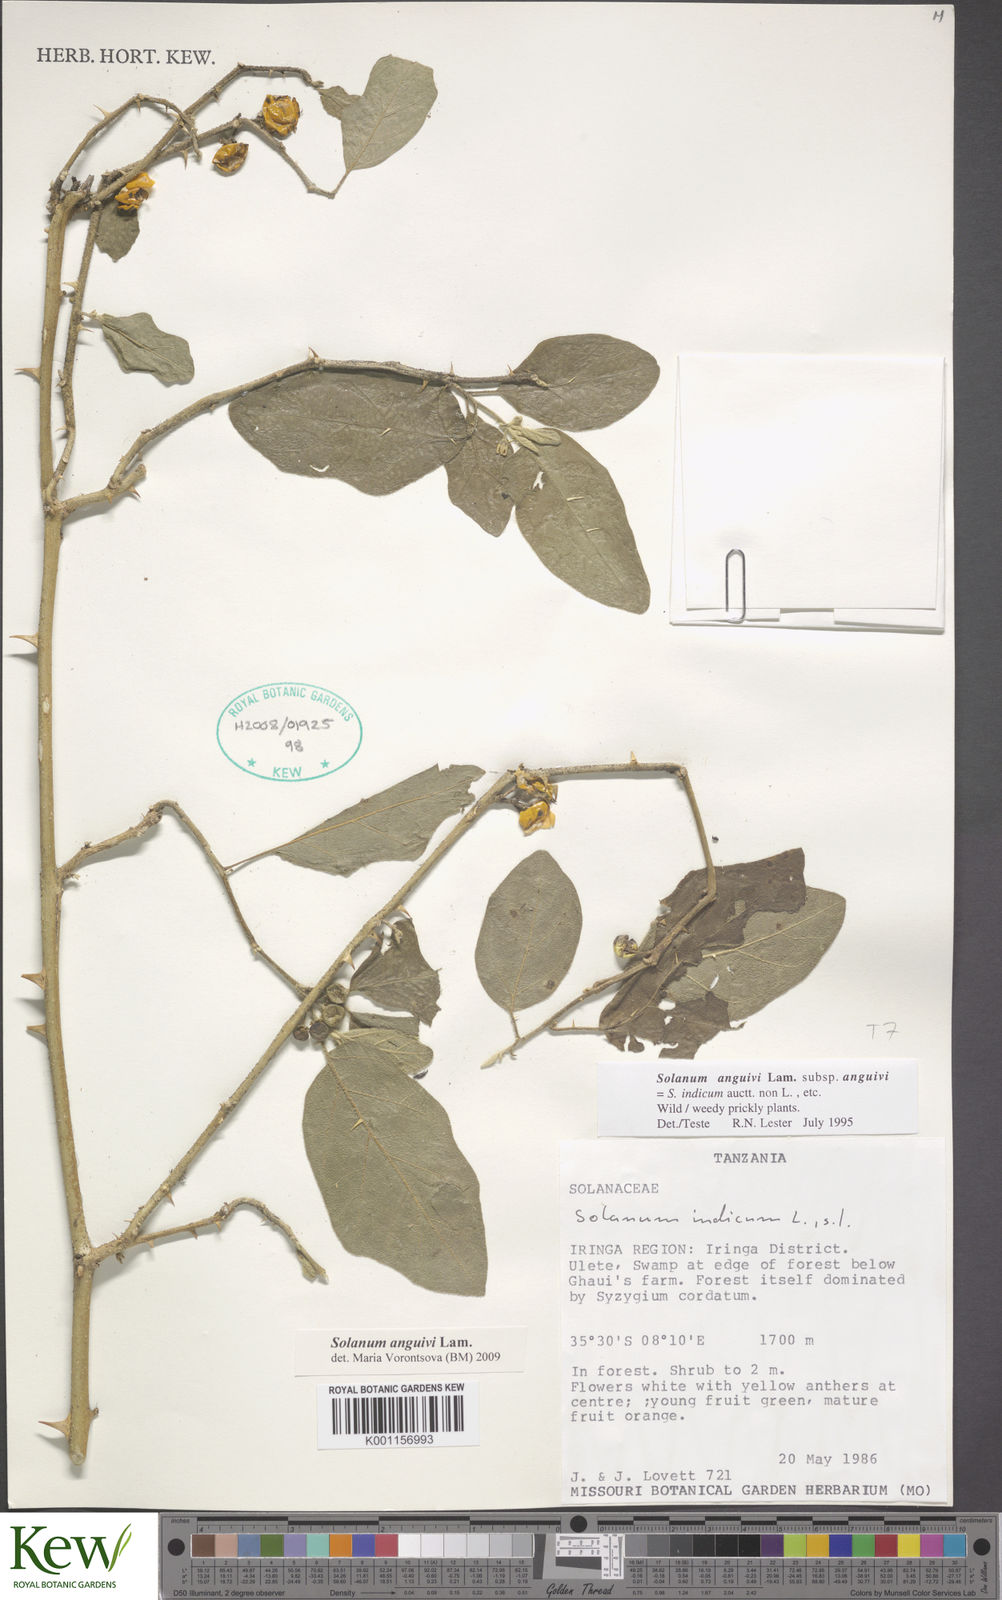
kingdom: Plantae
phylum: Tracheophyta
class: Magnoliopsida
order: Solanales
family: Solanaceae
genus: Solanum
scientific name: Solanum anguivi
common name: Forest bitterberry
